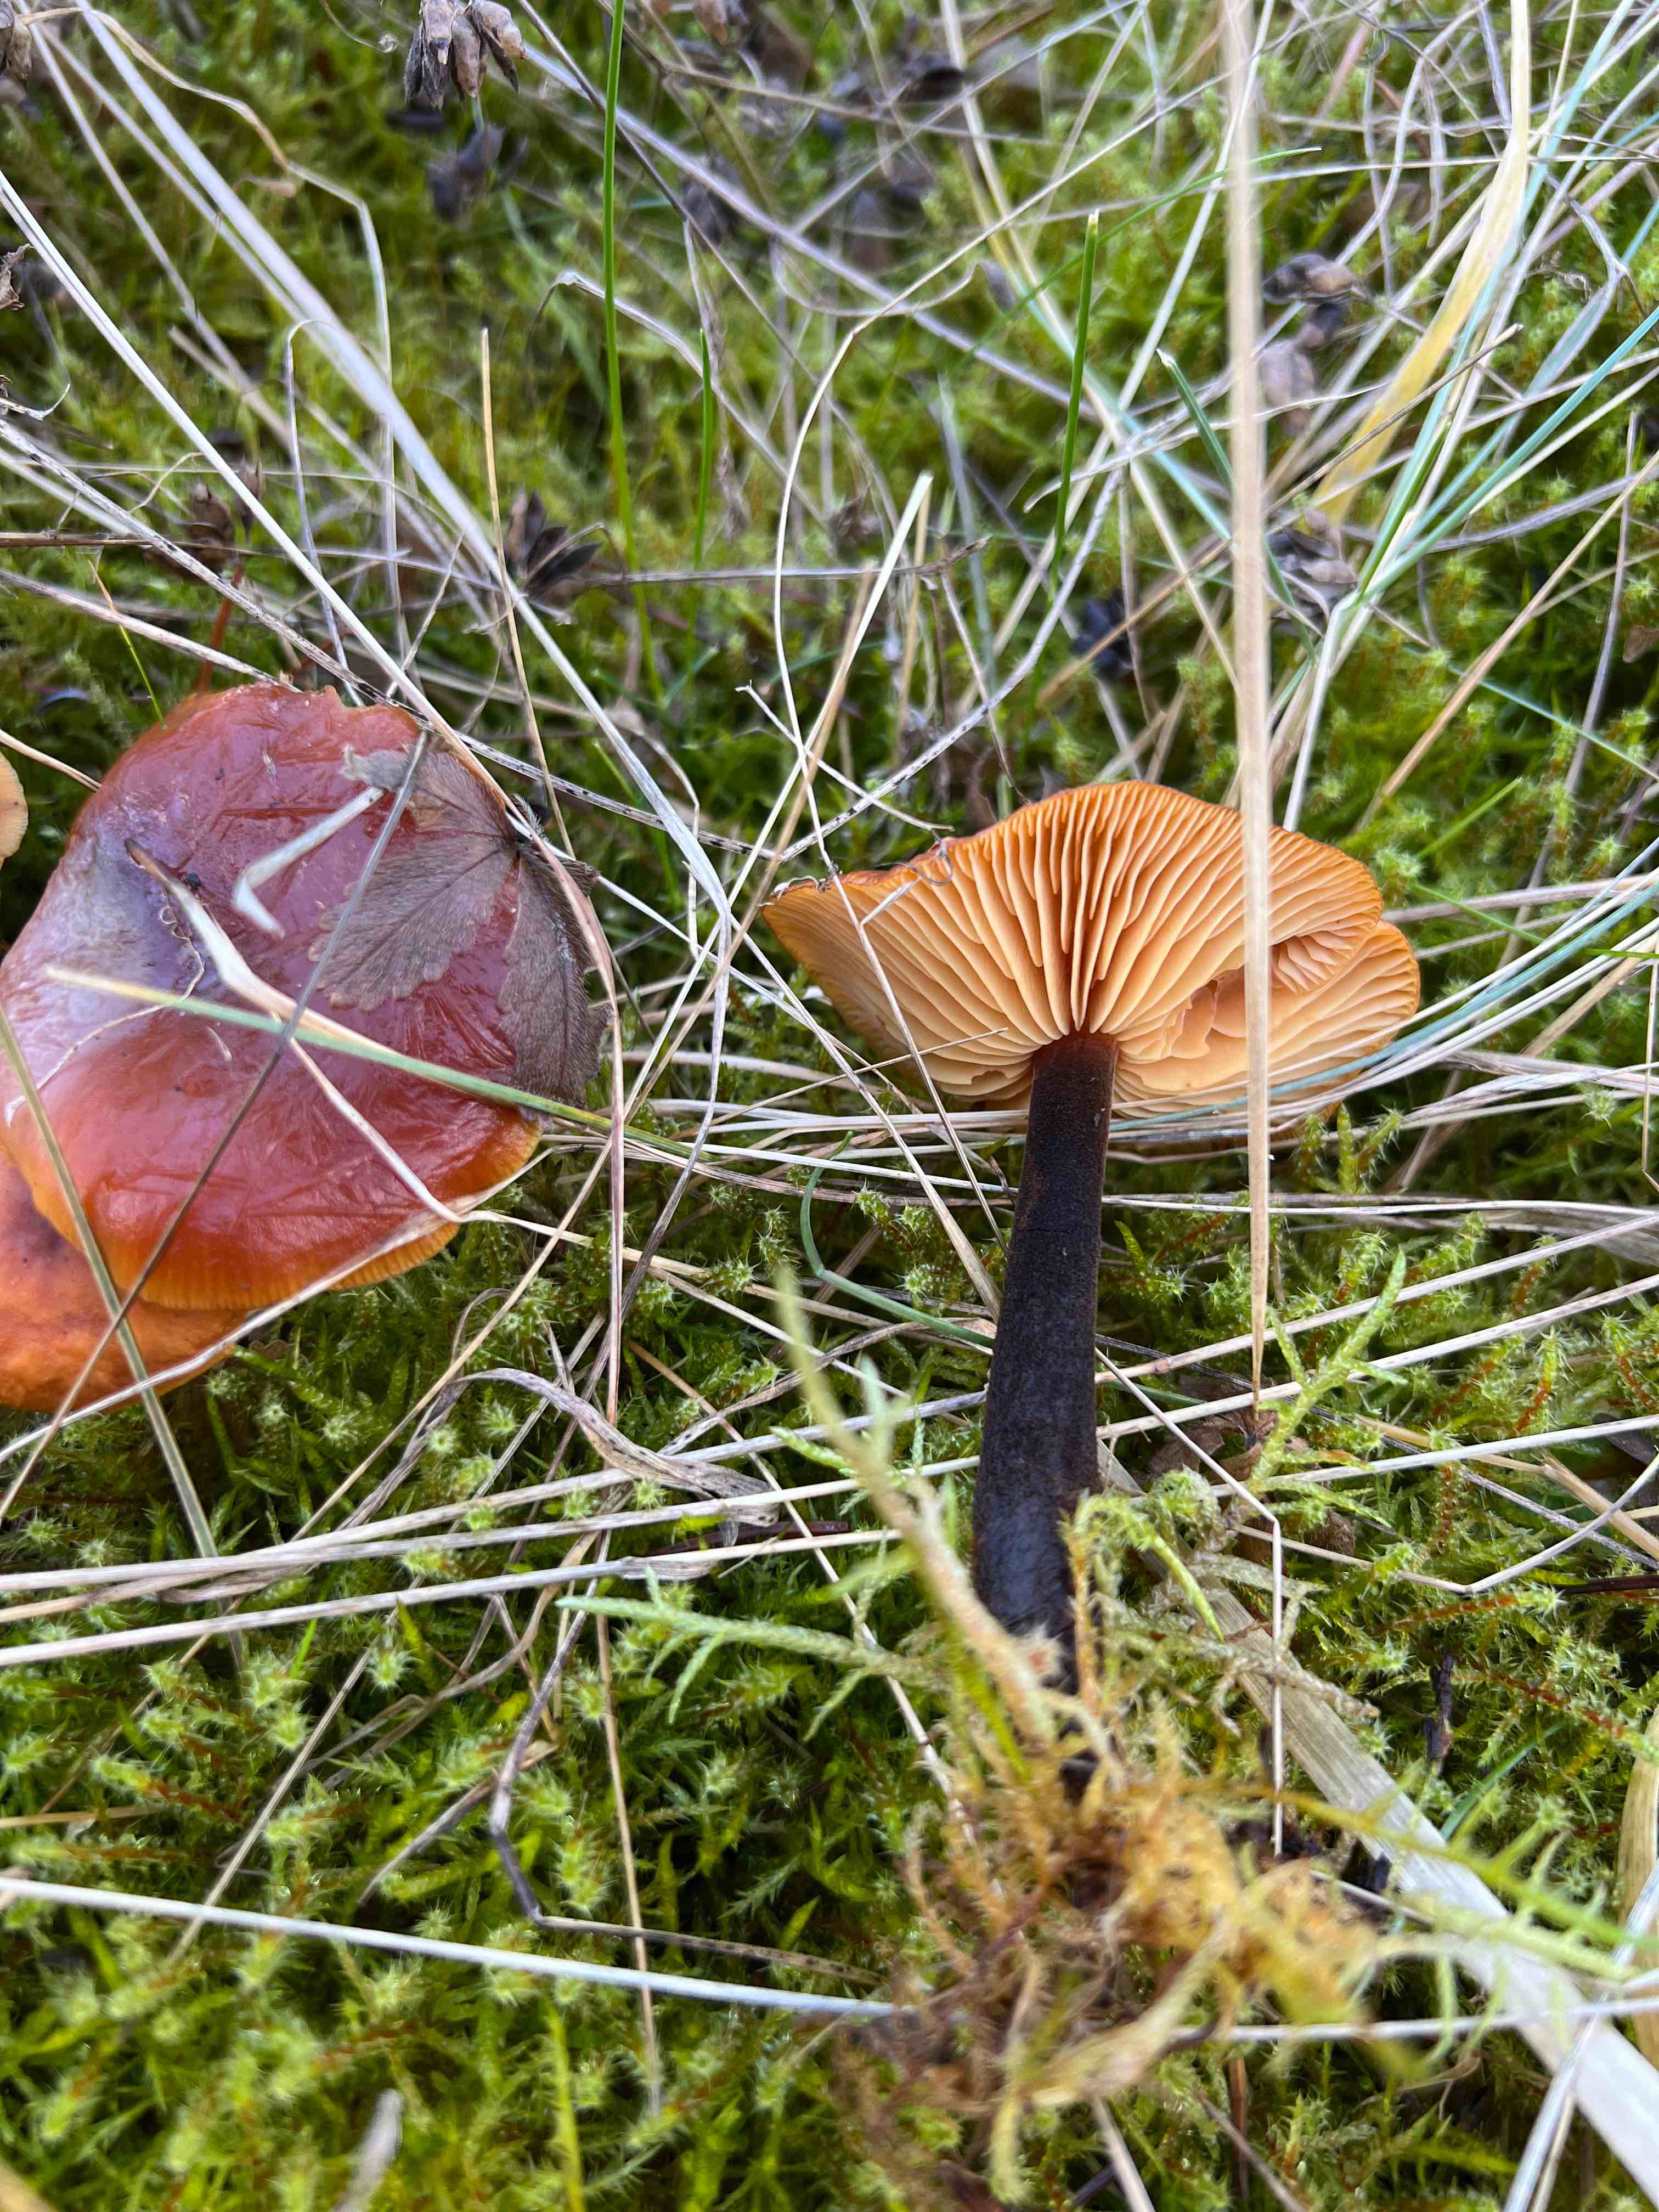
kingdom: Fungi
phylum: Basidiomycota
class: Agaricomycetes
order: Agaricales
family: Physalacriaceae
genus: Flammulina
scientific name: Flammulina
